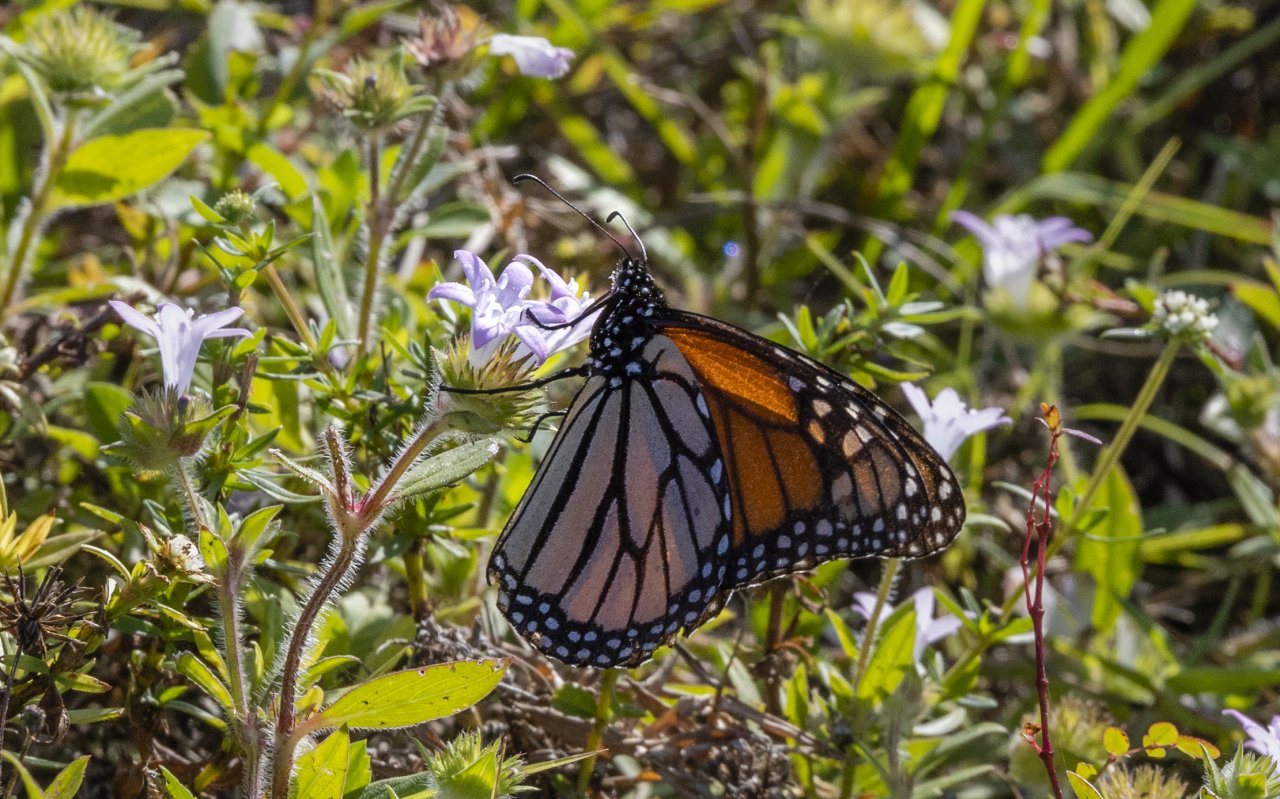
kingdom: Animalia
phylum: Arthropoda
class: Insecta
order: Lepidoptera
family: Nymphalidae
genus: Danaus
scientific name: Danaus plexippus
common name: Monarch
